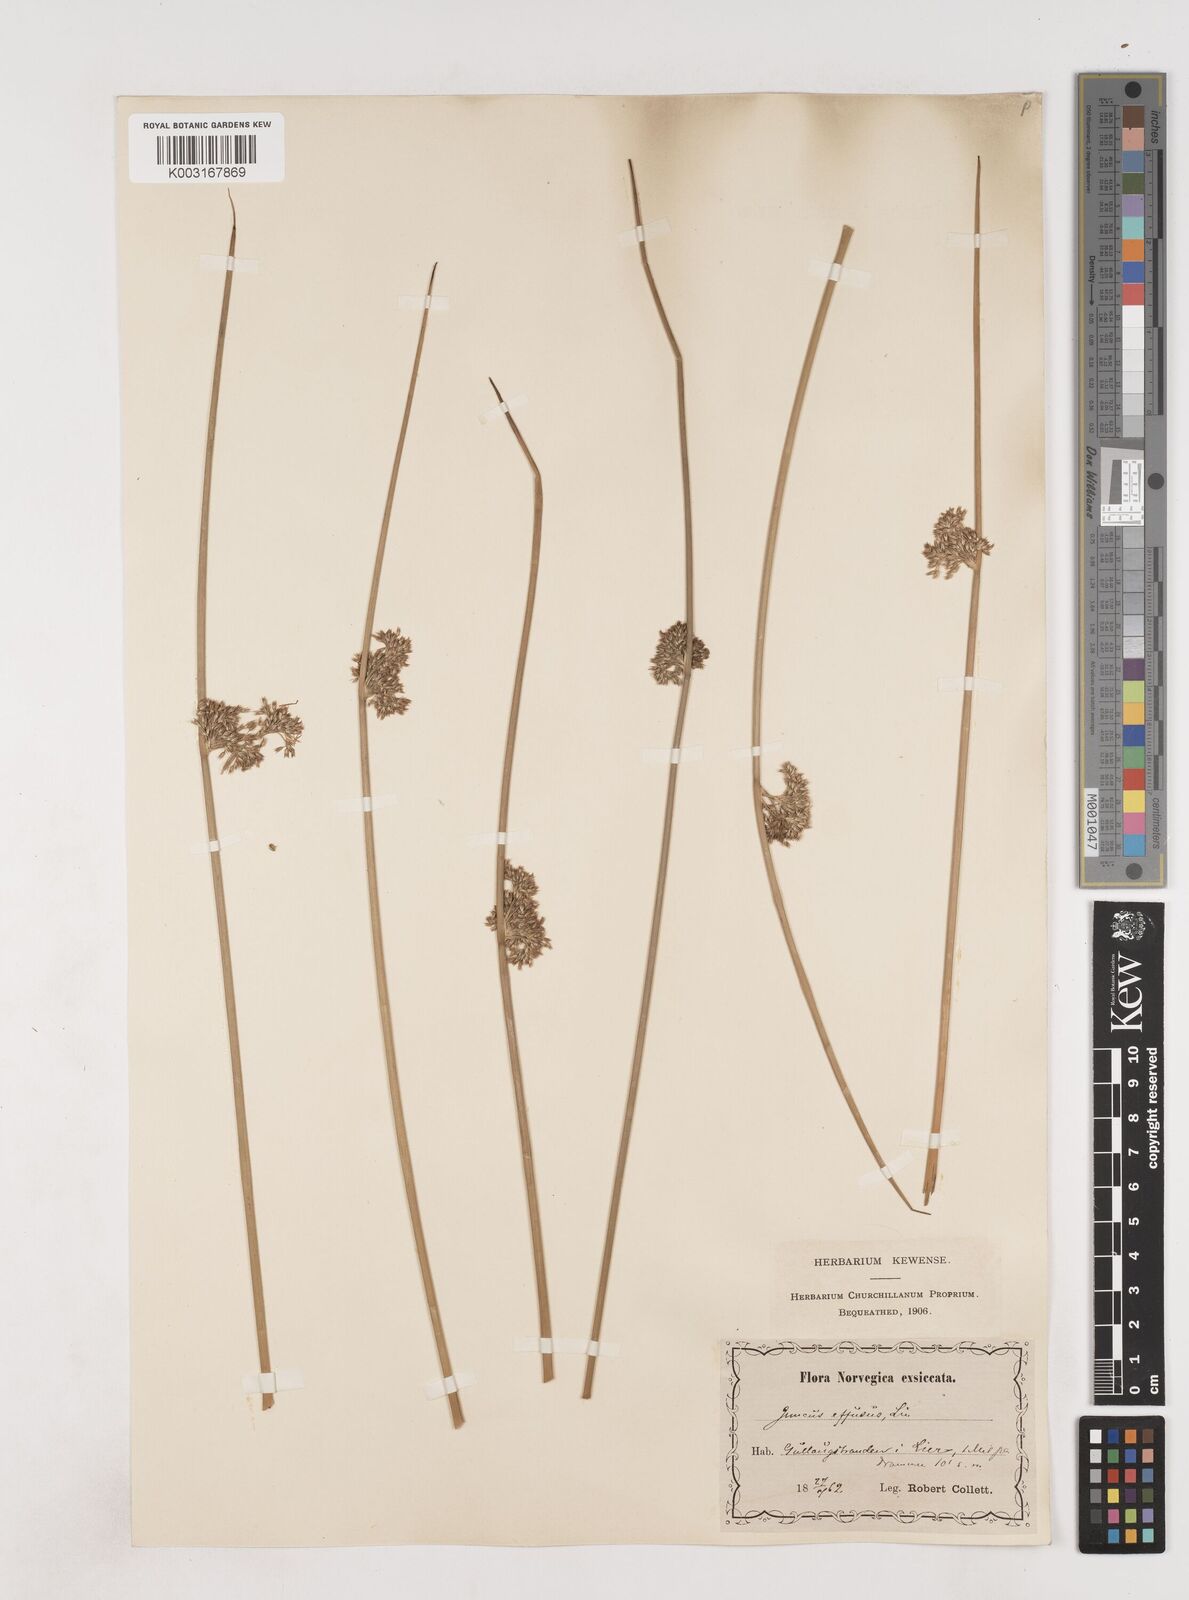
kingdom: Plantae
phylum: Tracheophyta
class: Liliopsida
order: Poales
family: Juncaceae
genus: Juncus
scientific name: Juncus effusus
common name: Soft rush
